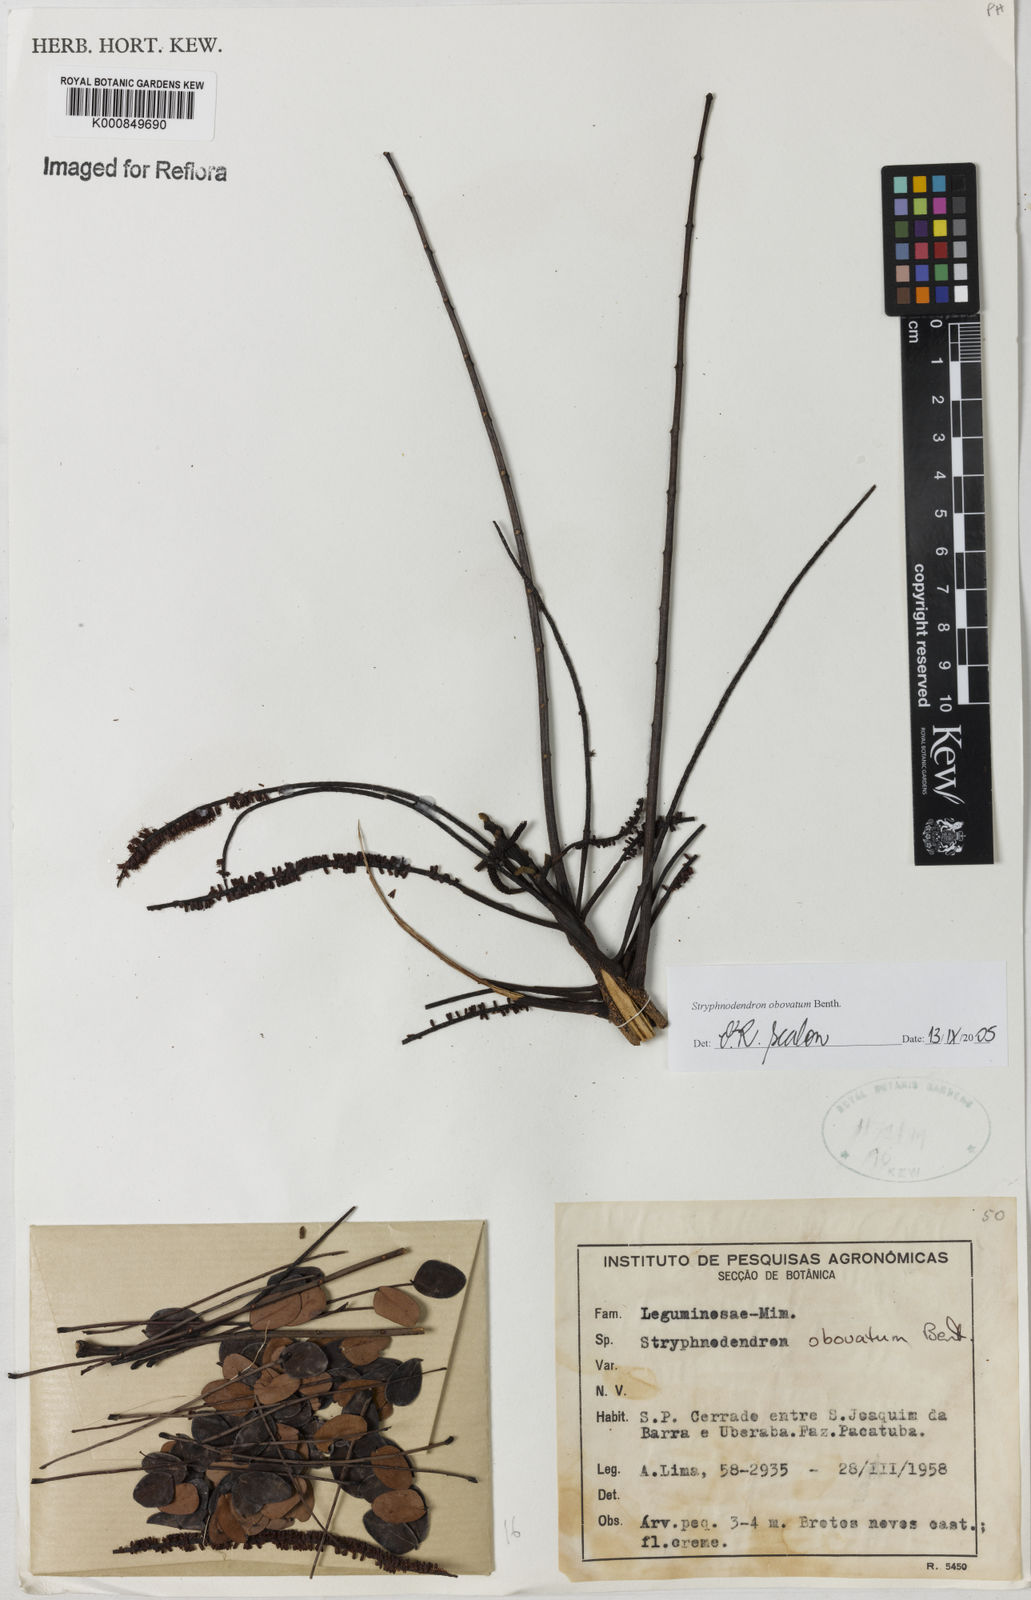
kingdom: Plantae
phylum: Tracheophyta
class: Magnoliopsida
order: Fabales
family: Fabaceae
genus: Stryphnodendron
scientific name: Stryphnodendron rotundifolium
